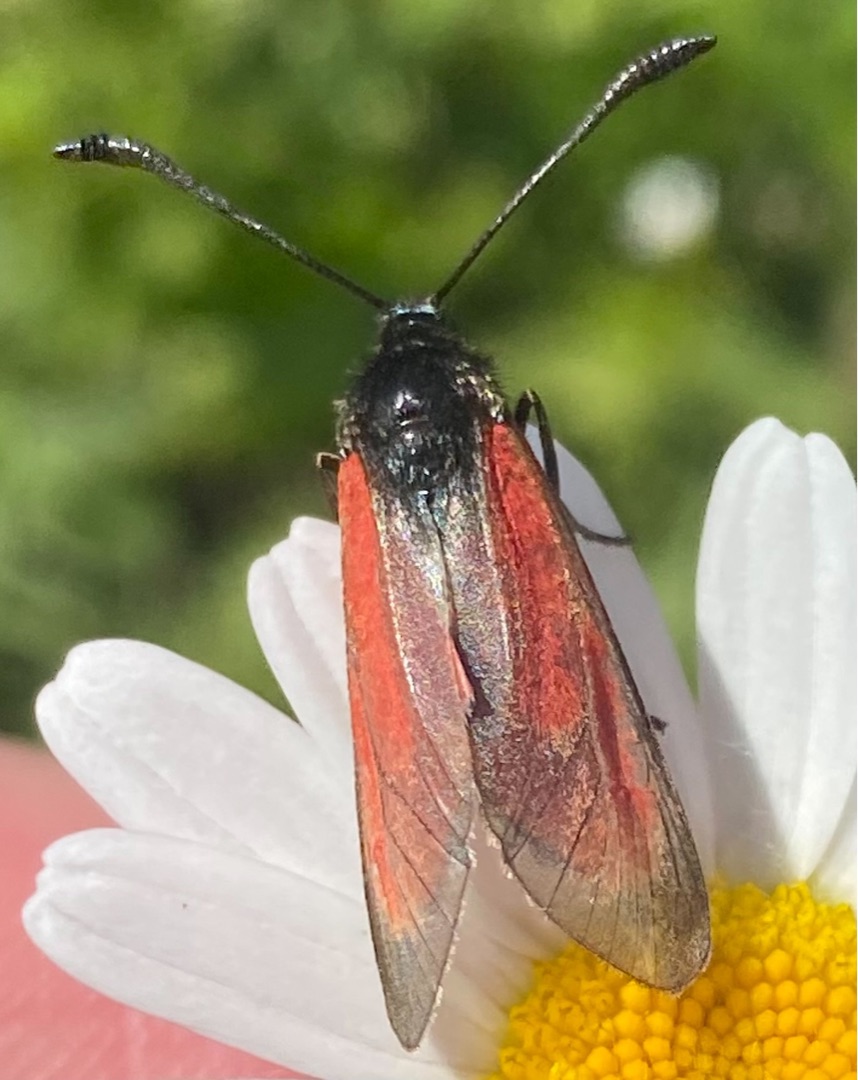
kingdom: Animalia
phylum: Arthropoda
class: Insecta
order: Lepidoptera
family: Zygaenidae
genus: Zygaena
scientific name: Zygaena purpuralis
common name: Timiankøllesværmer
